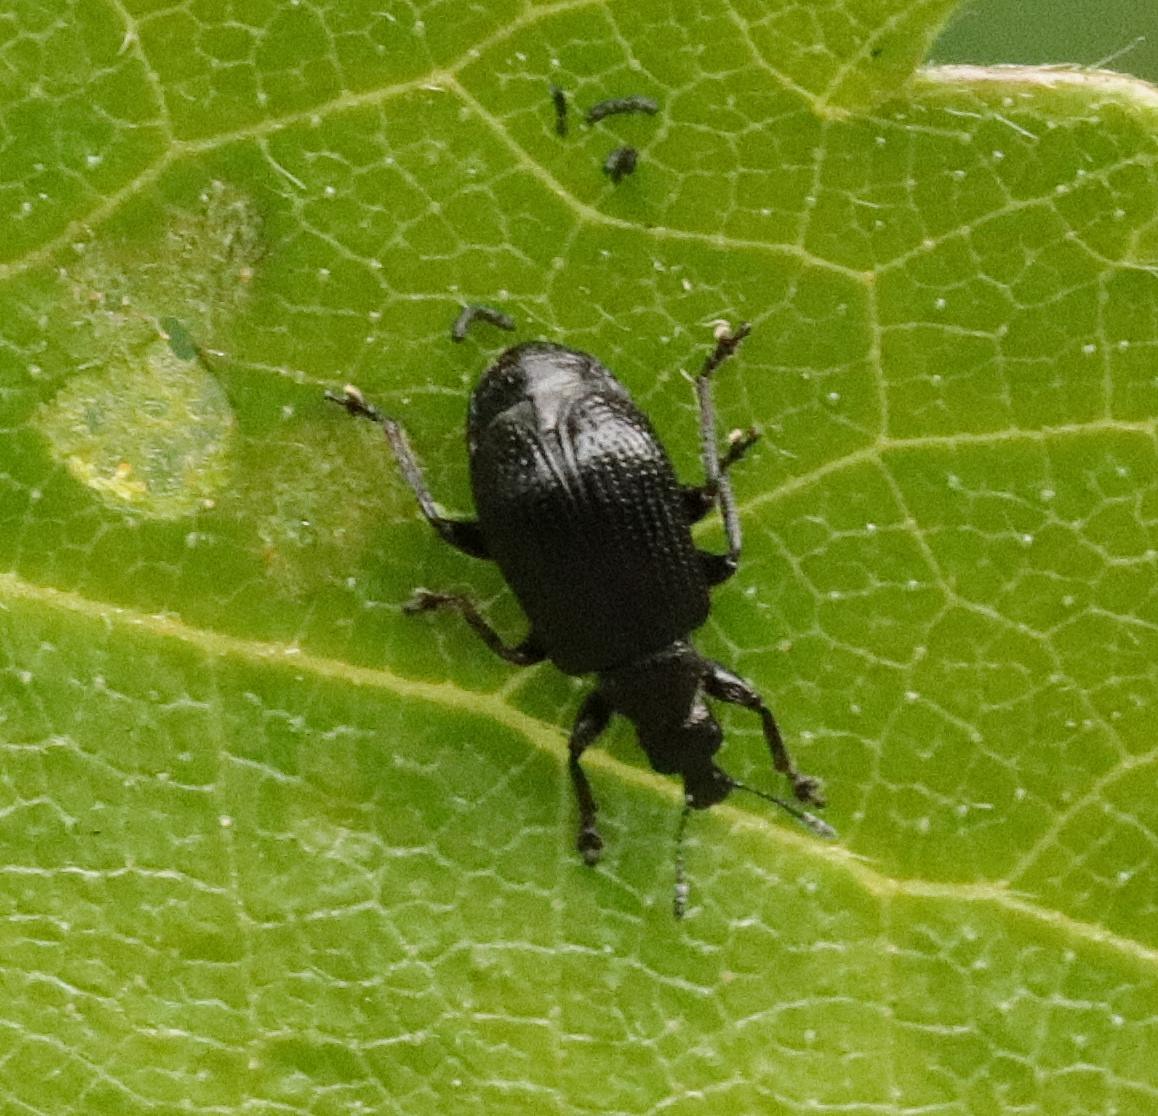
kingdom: Animalia
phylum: Arthropoda
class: Insecta
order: Coleoptera
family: Attelabidae
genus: Byctiscus
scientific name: Byctiscus betulae
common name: Birkebladruller
